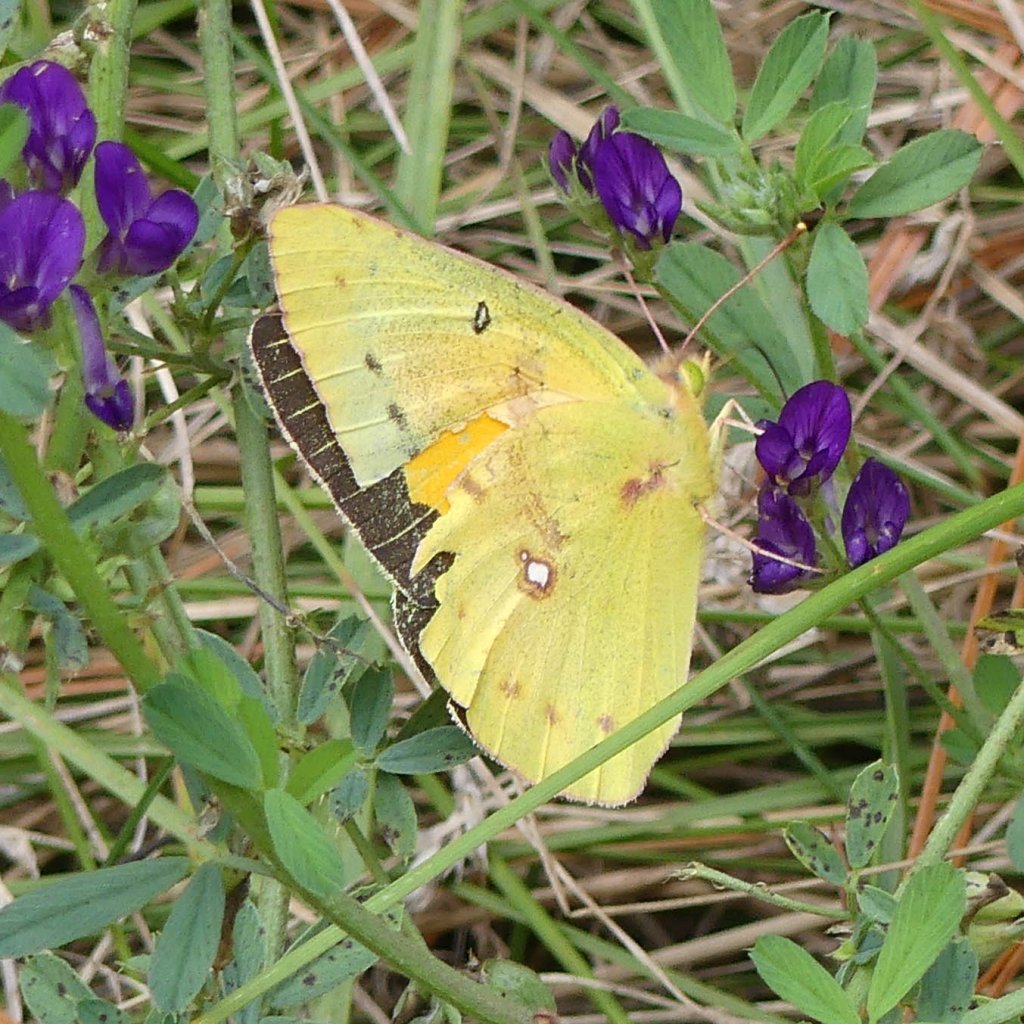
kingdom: Animalia
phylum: Arthropoda
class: Insecta
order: Lepidoptera
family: Pieridae
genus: Colias
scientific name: Colias eurytheme
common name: Orange Sulphur
